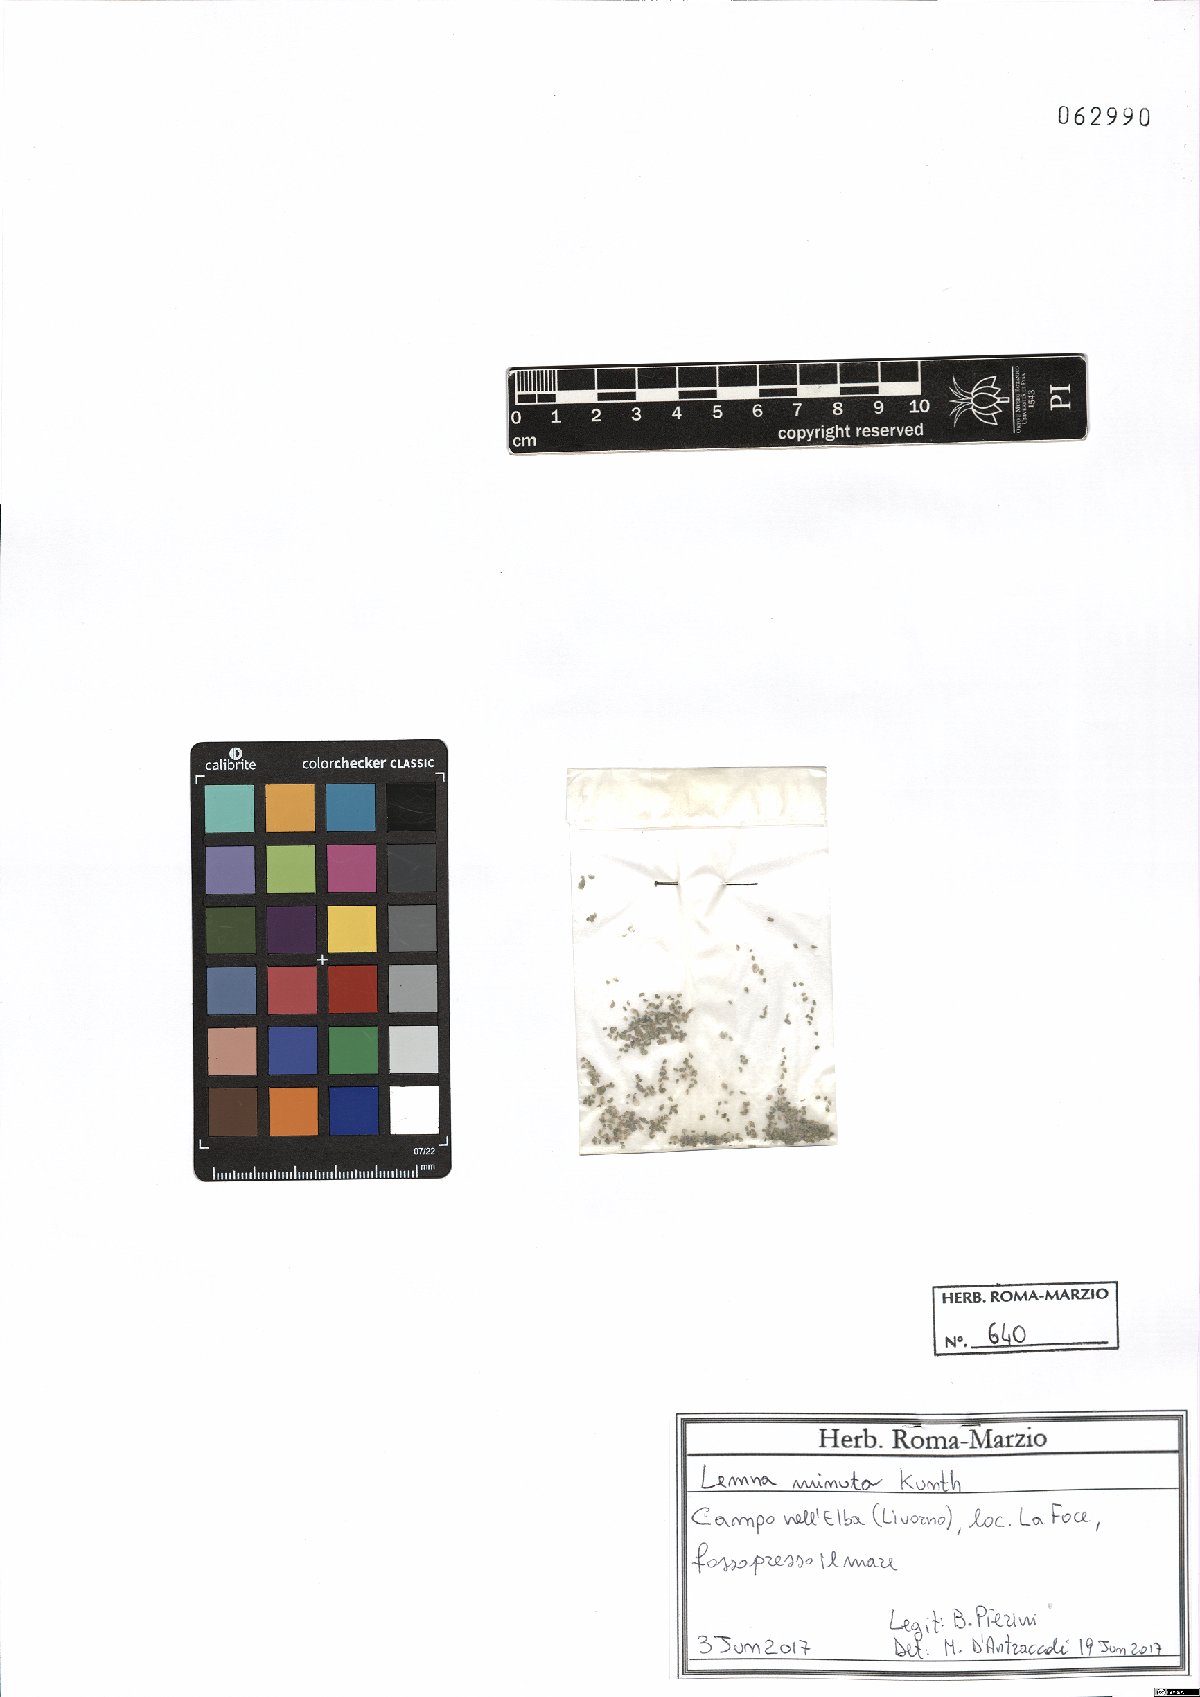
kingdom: Plantae
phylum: Tracheophyta
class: Liliopsida
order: Alismatales
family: Araceae
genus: Lemna
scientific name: Lemna minuta
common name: Least duckweed
